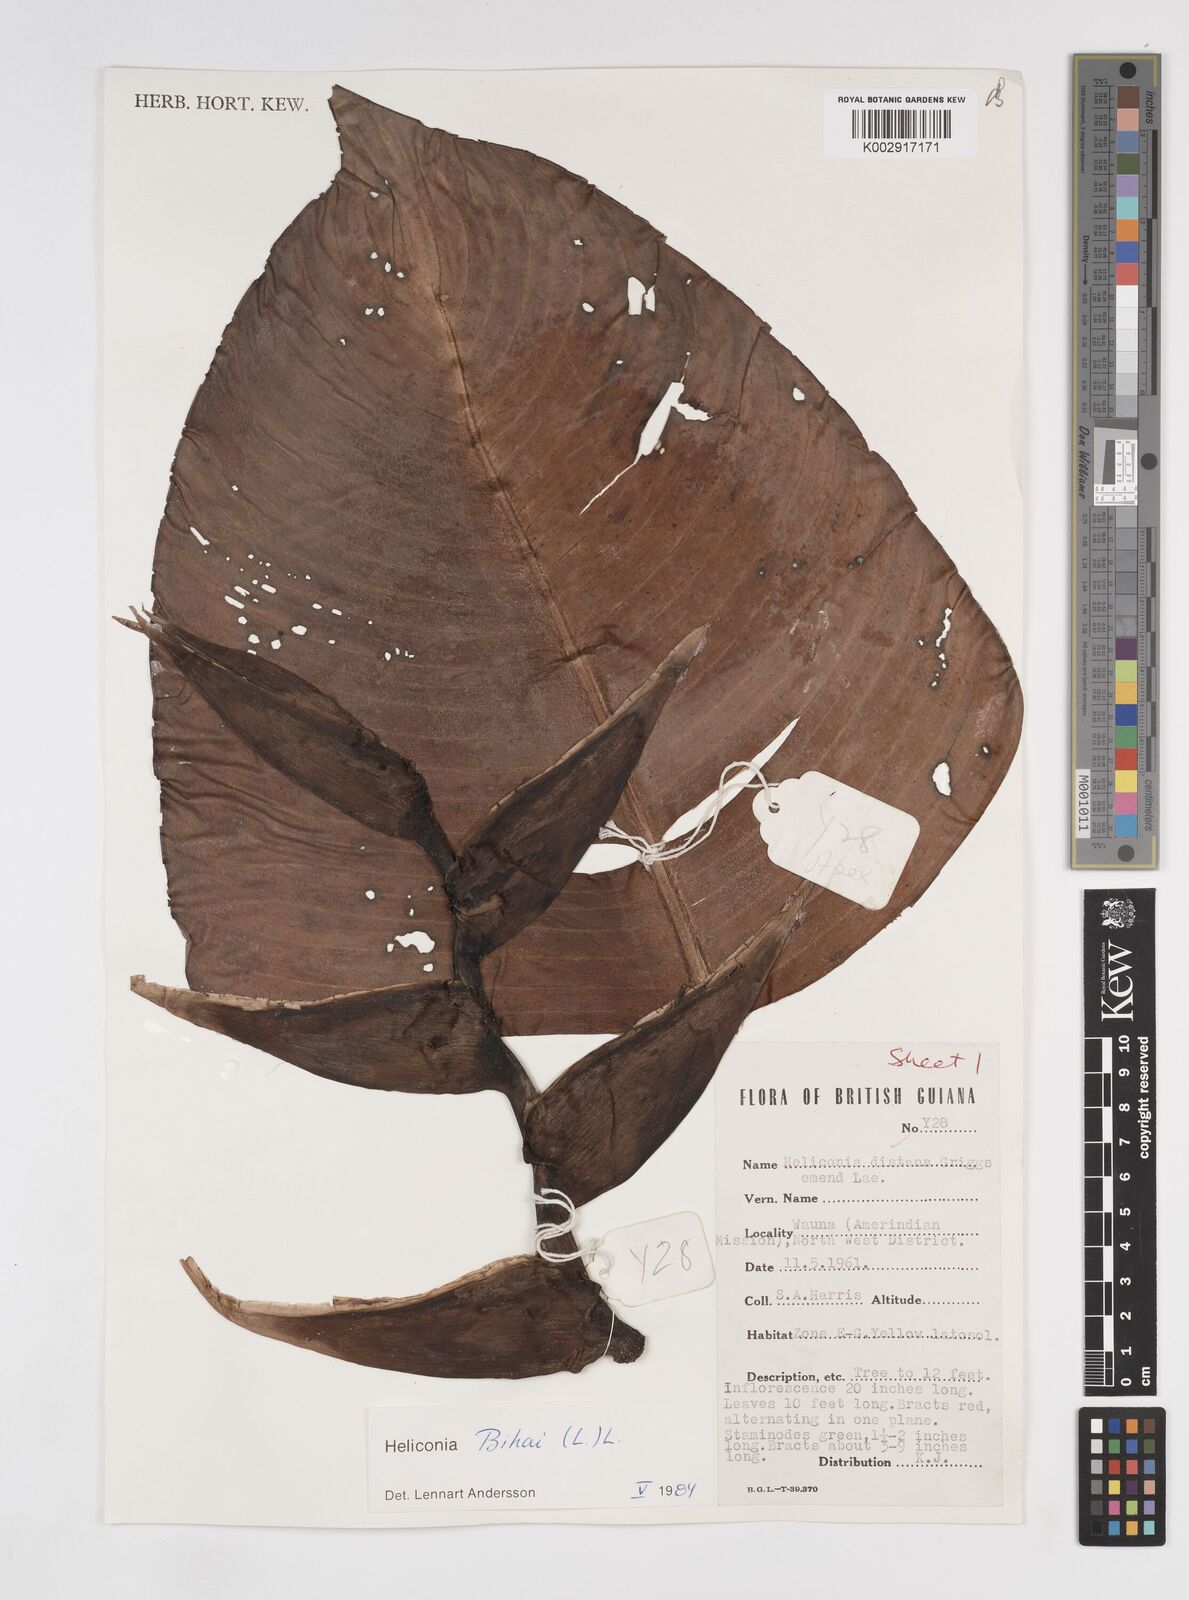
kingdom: Plantae
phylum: Tracheophyta
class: Liliopsida
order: Zingiberales
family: Heliconiaceae
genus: Heliconia
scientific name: Heliconia bihai
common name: Macaw flower
